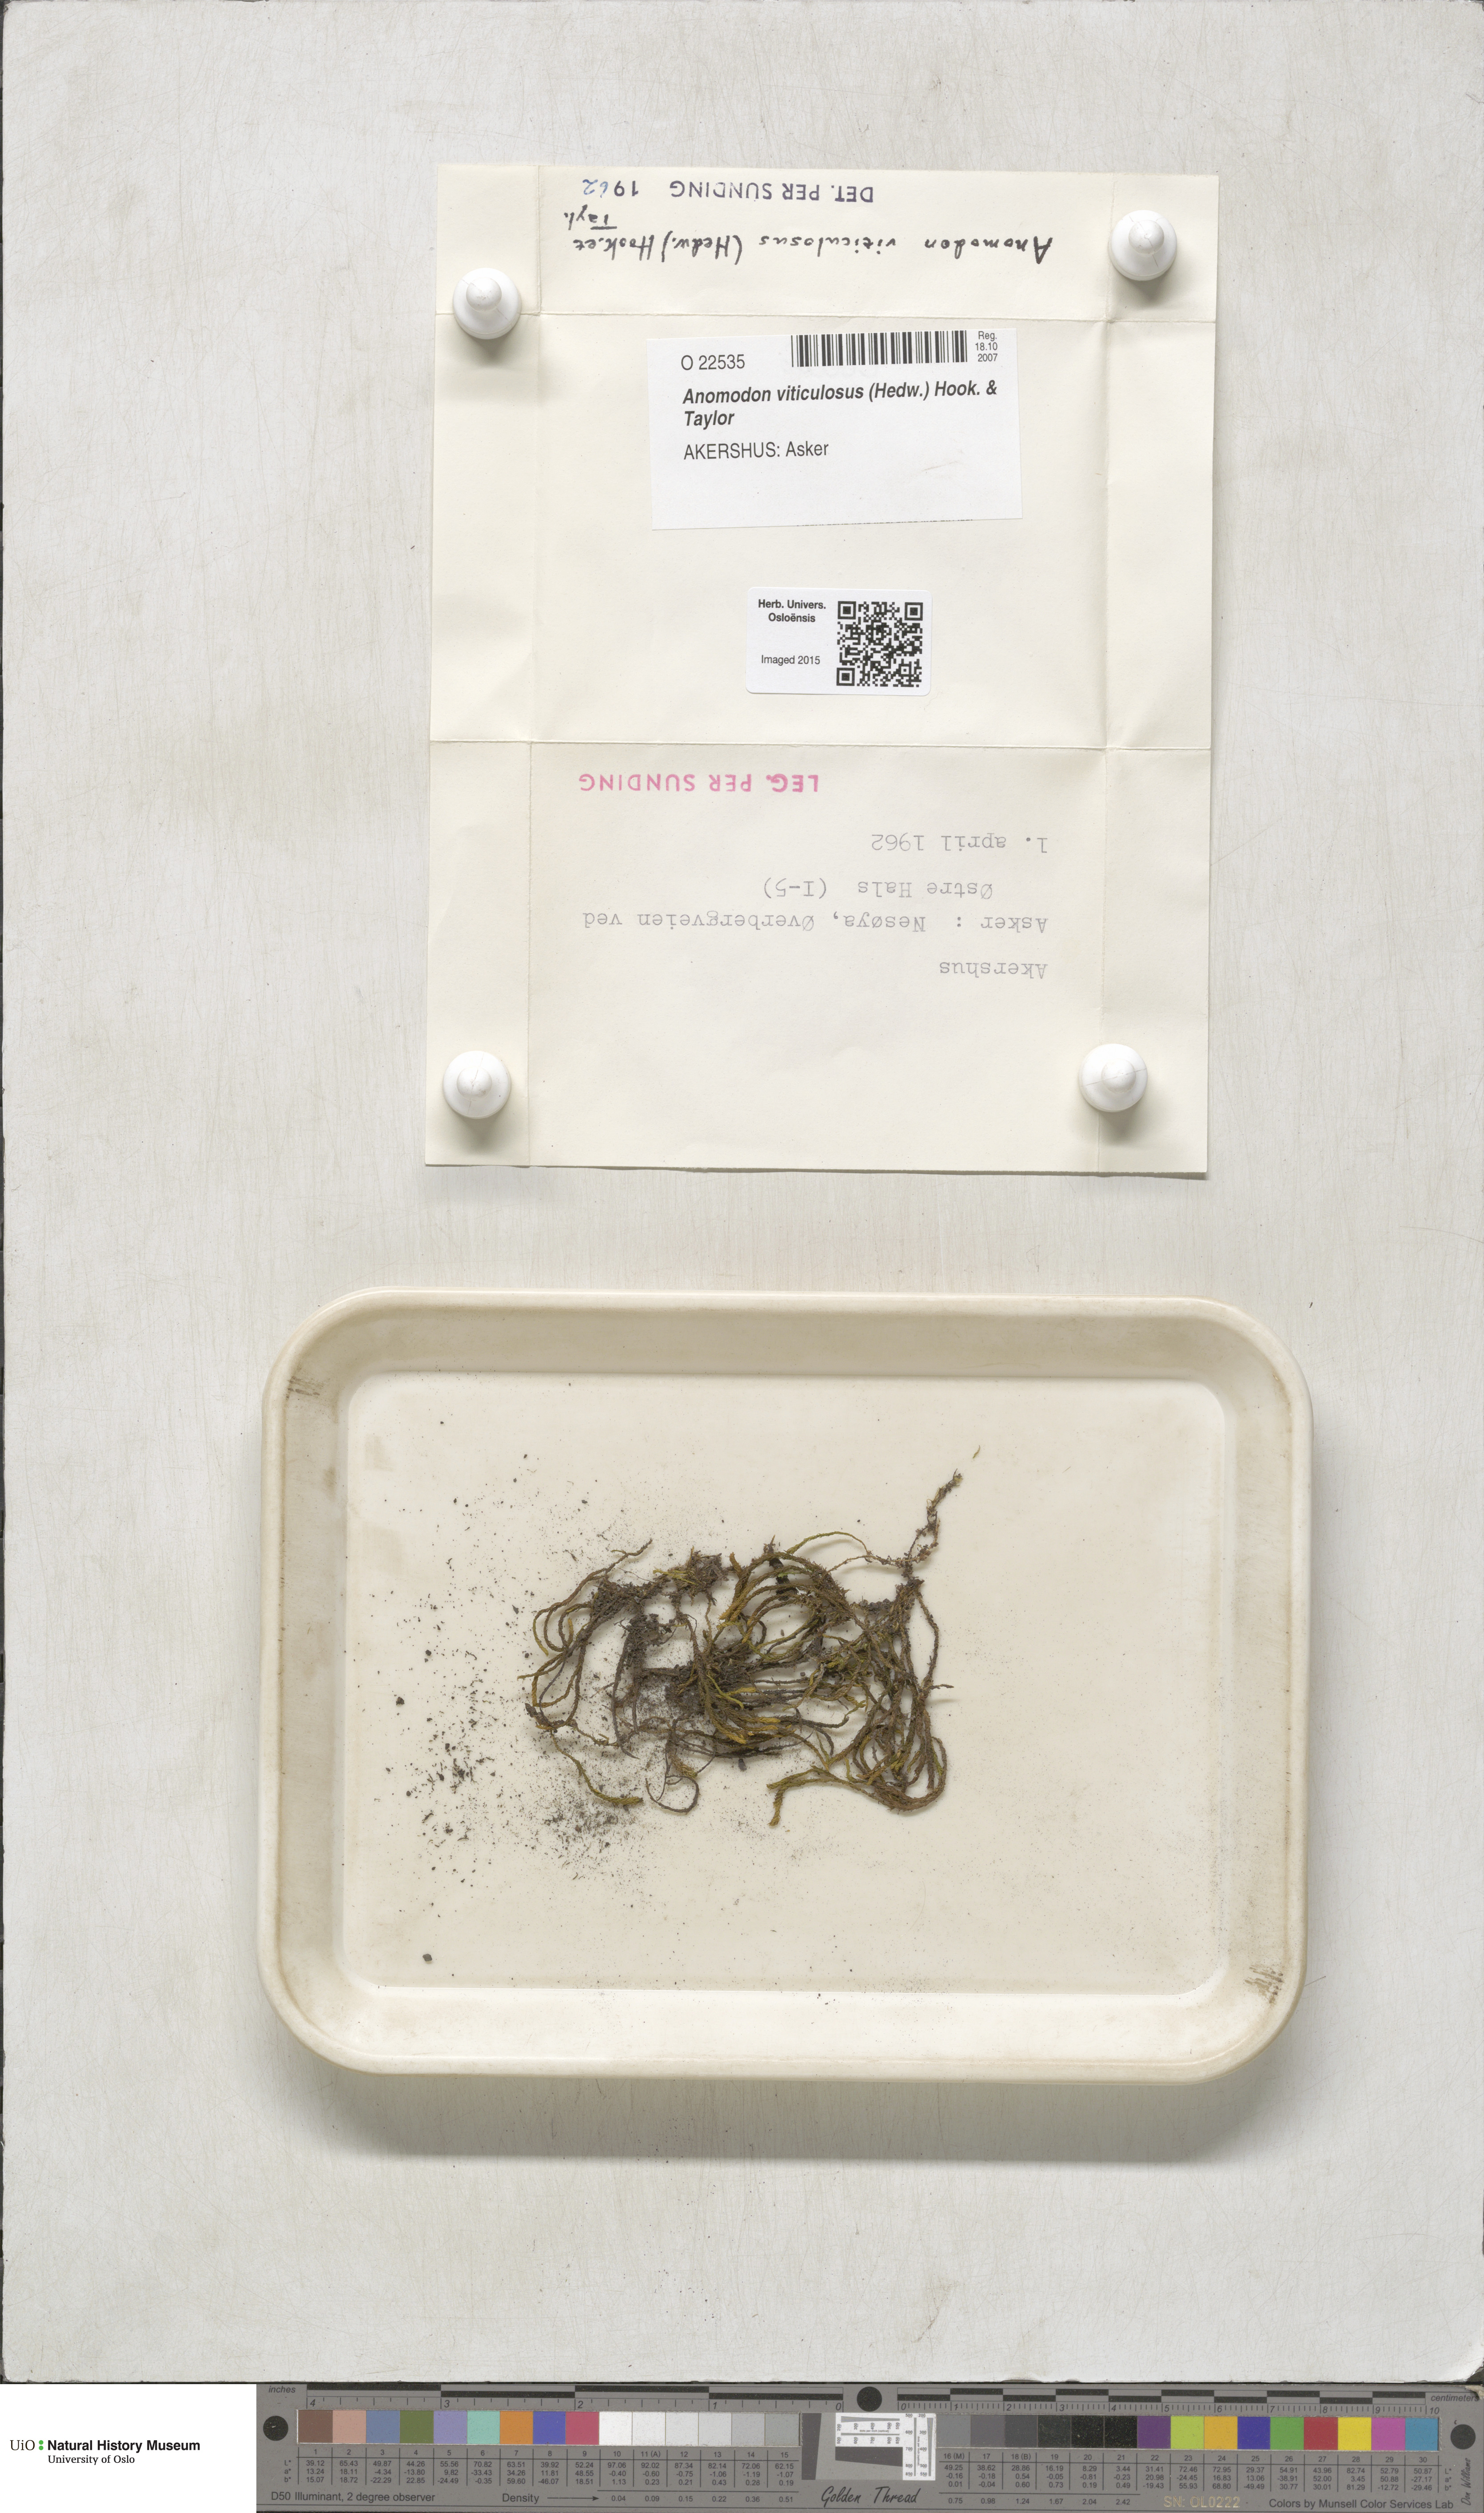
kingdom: Plantae
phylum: Bryophyta
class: Bryopsida
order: Hypnales
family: Anomodontaceae
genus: Anomodon
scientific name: Anomodon viticulosus
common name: Tall anomodon
